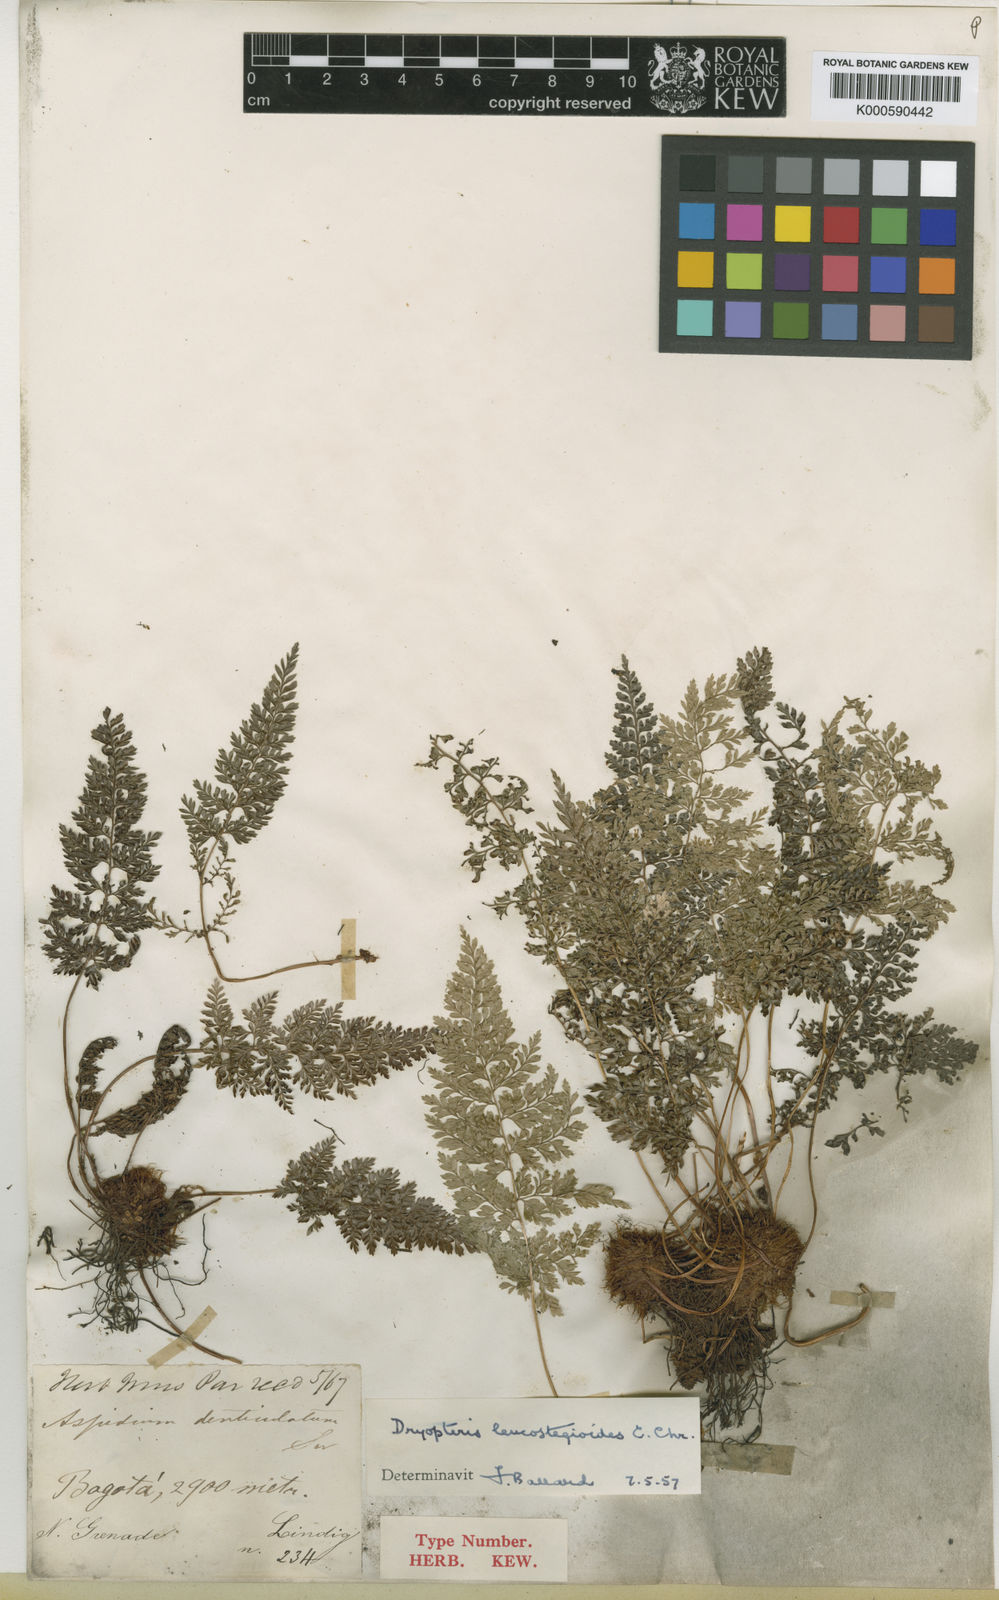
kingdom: Plantae
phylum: Tracheophyta
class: Polypodiopsida
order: Polypodiales
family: Dryopteridaceae
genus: Arachniodes
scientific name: Arachniodes leucostegioides
